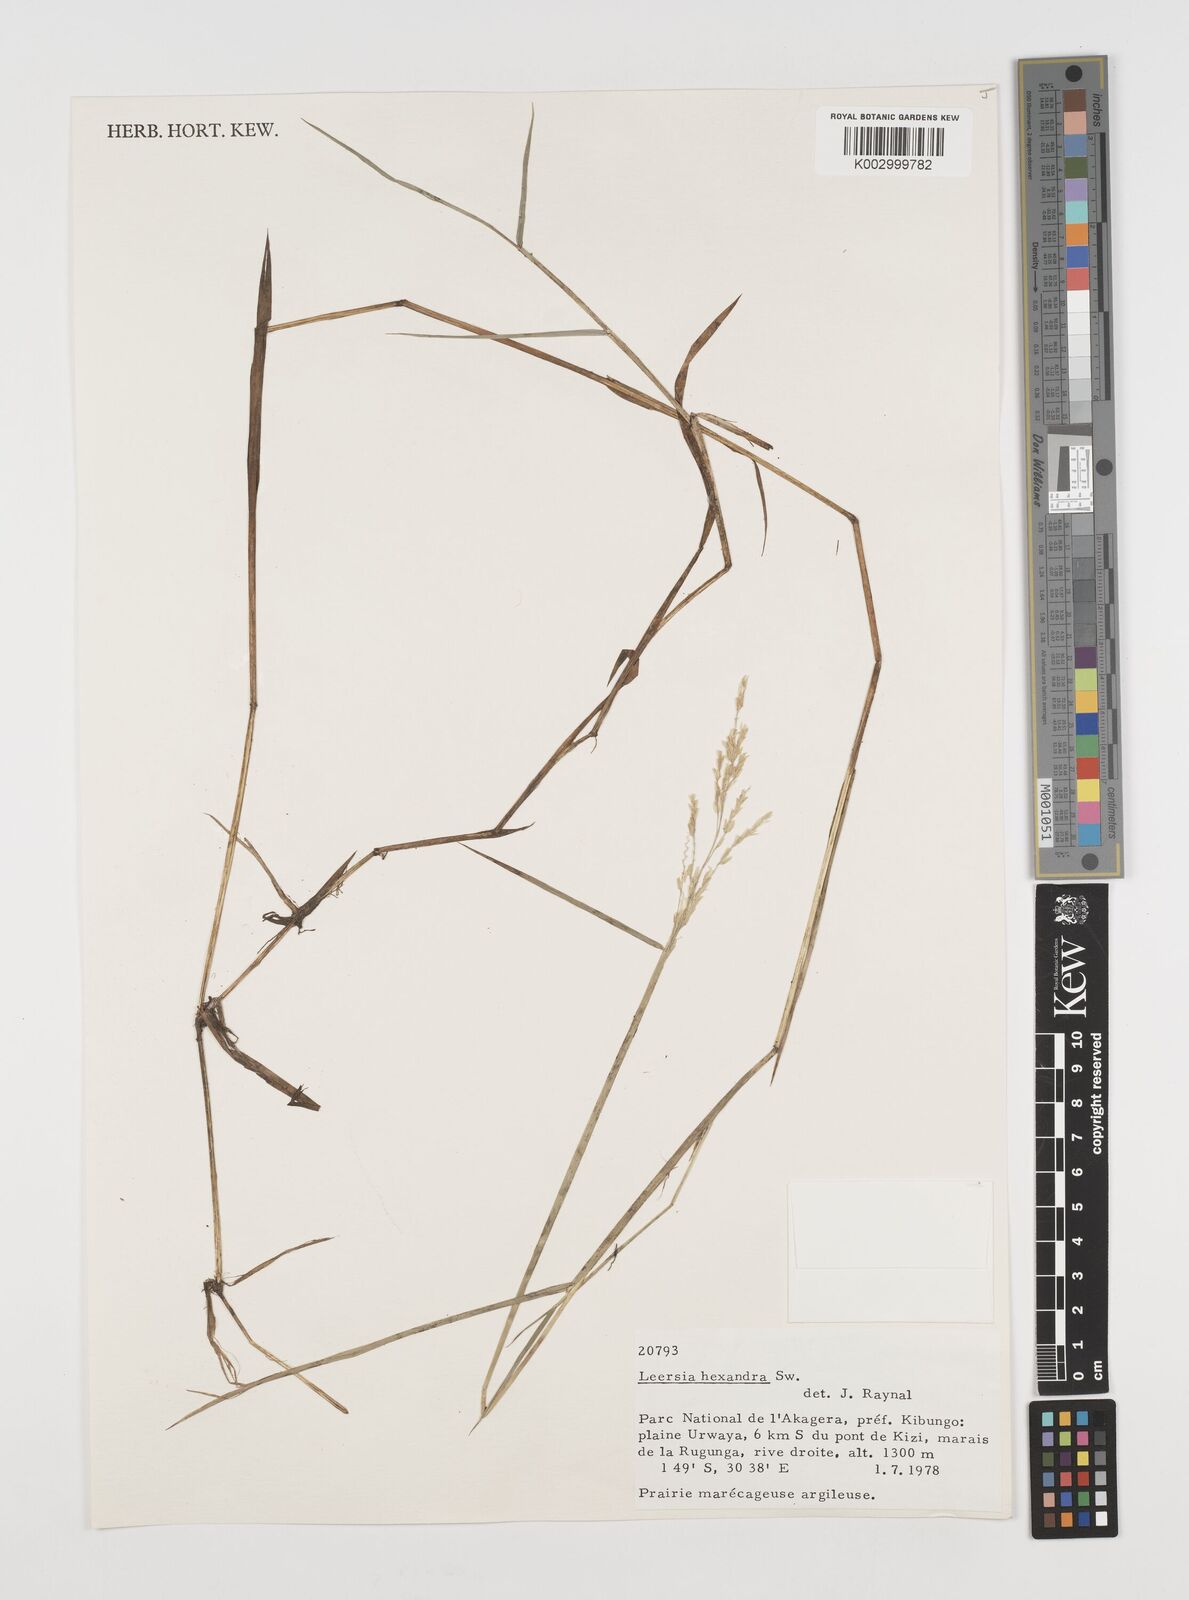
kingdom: Plantae
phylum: Tracheophyta
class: Liliopsida
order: Poales
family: Poaceae
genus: Leersia
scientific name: Leersia hexandra
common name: Southern cut grass
